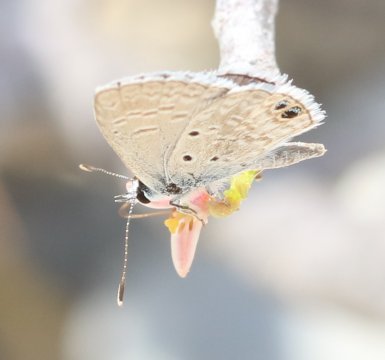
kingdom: Animalia
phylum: Arthropoda
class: Insecta
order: Lepidoptera
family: Lycaenidae
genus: Echinargus
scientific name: Echinargus isola
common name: Reakirt's Blue
